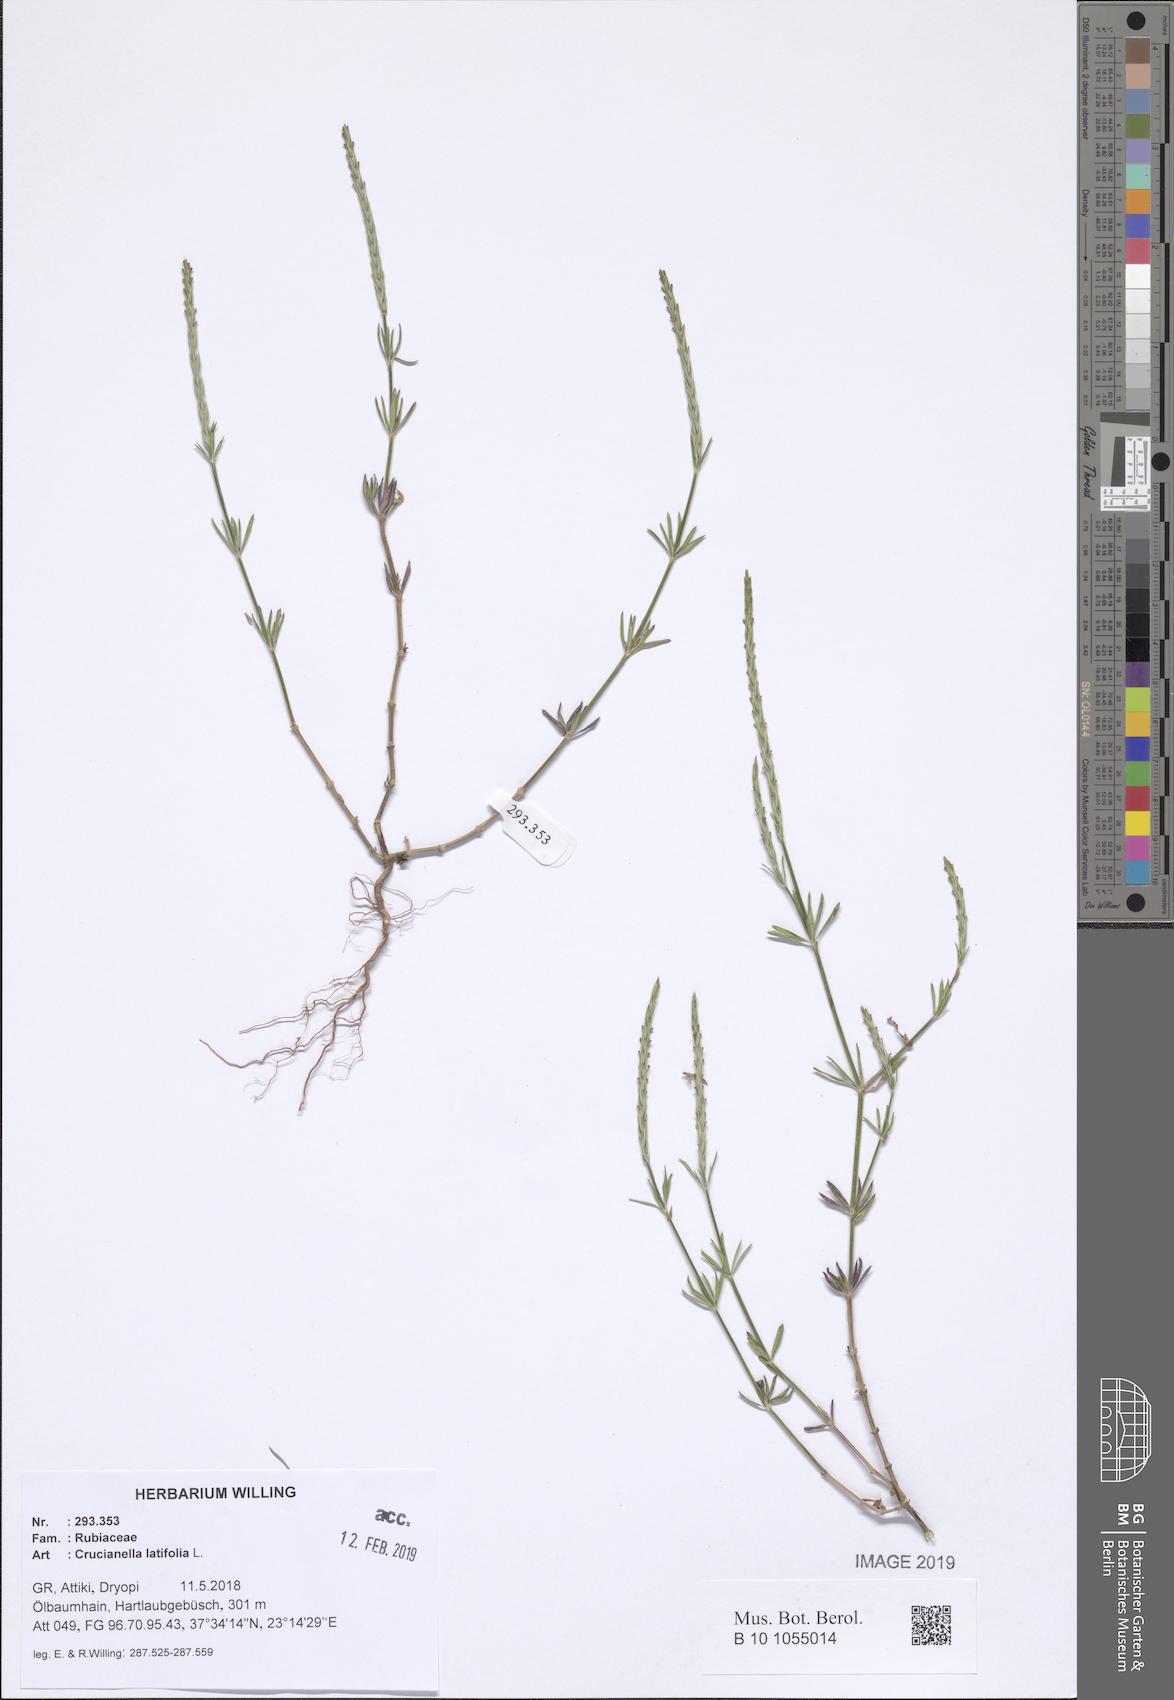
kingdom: Plantae
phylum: Tracheophyta
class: Magnoliopsida
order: Gentianales
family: Rubiaceae
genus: Crucianella
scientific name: Crucianella latifolia
